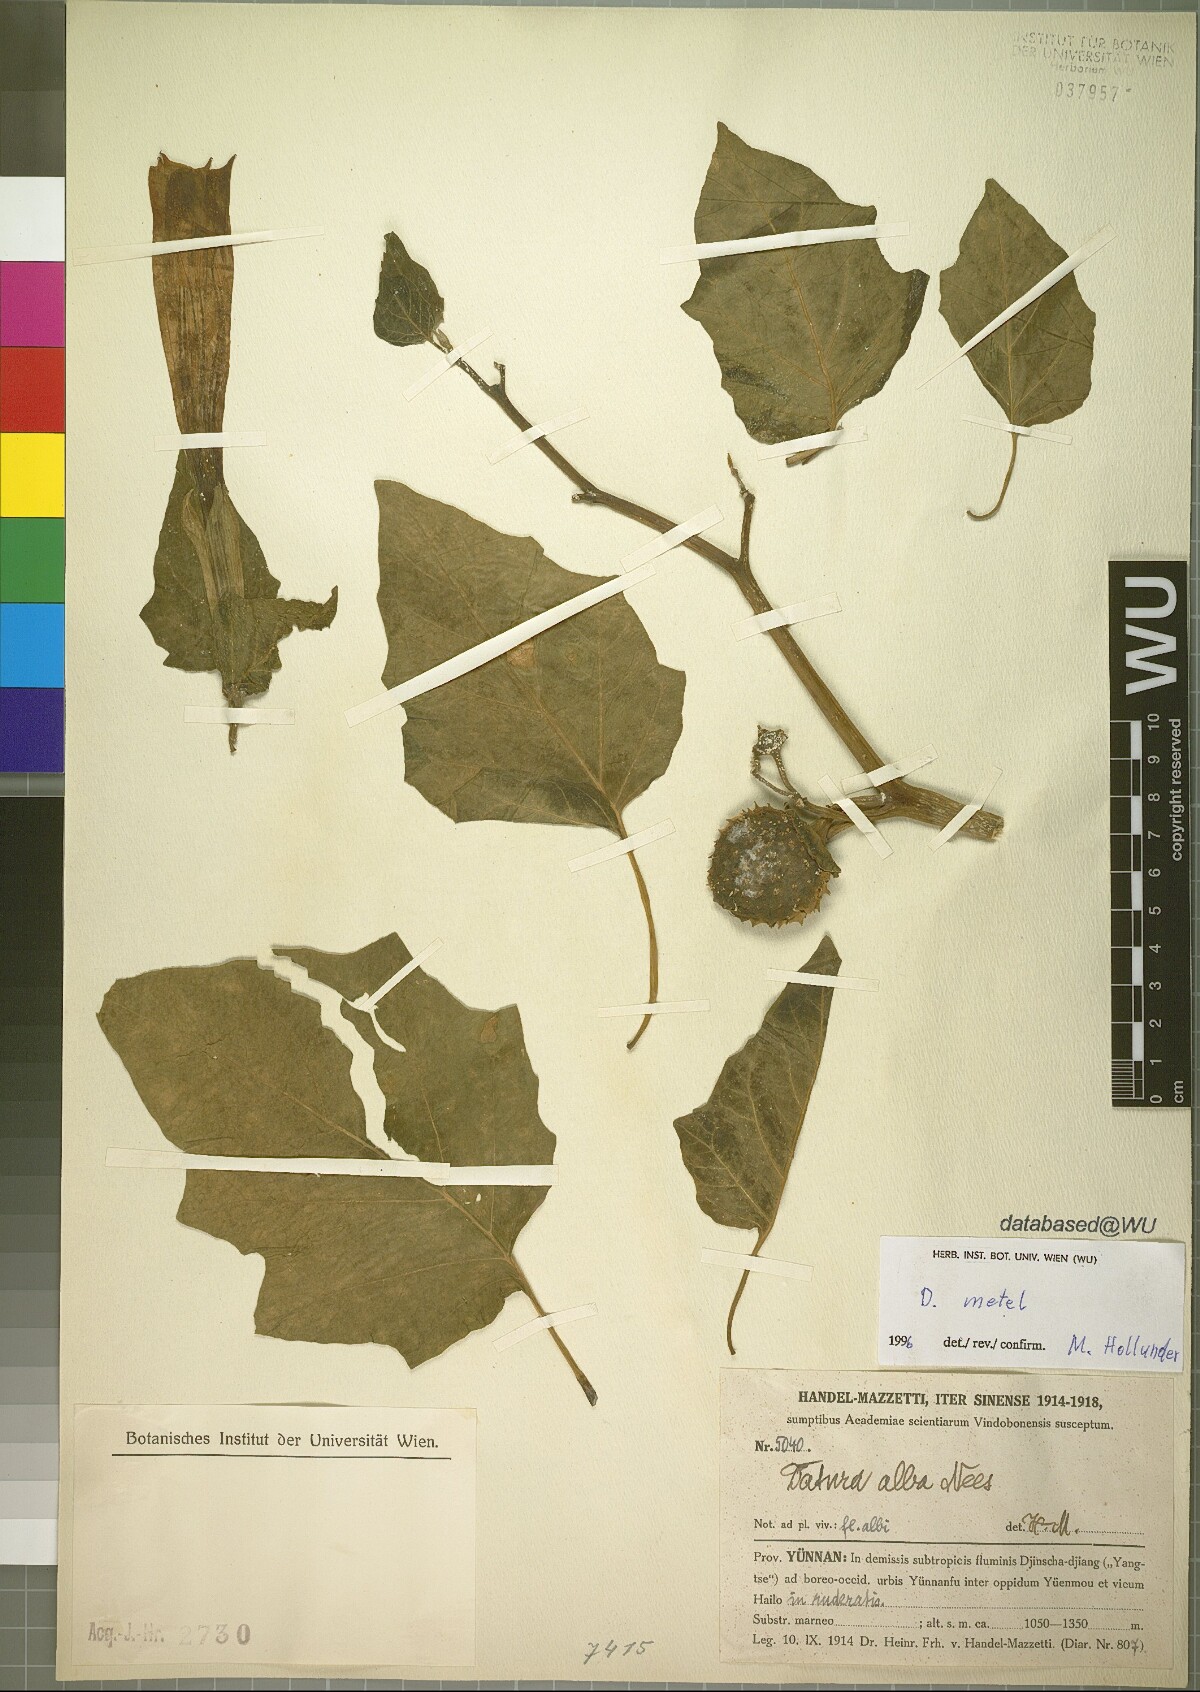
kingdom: Plantae
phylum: Tracheophyta
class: Magnoliopsida
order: Solanales
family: Solanaceae
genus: Datura
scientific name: Datura metel
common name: Jimsonweed
